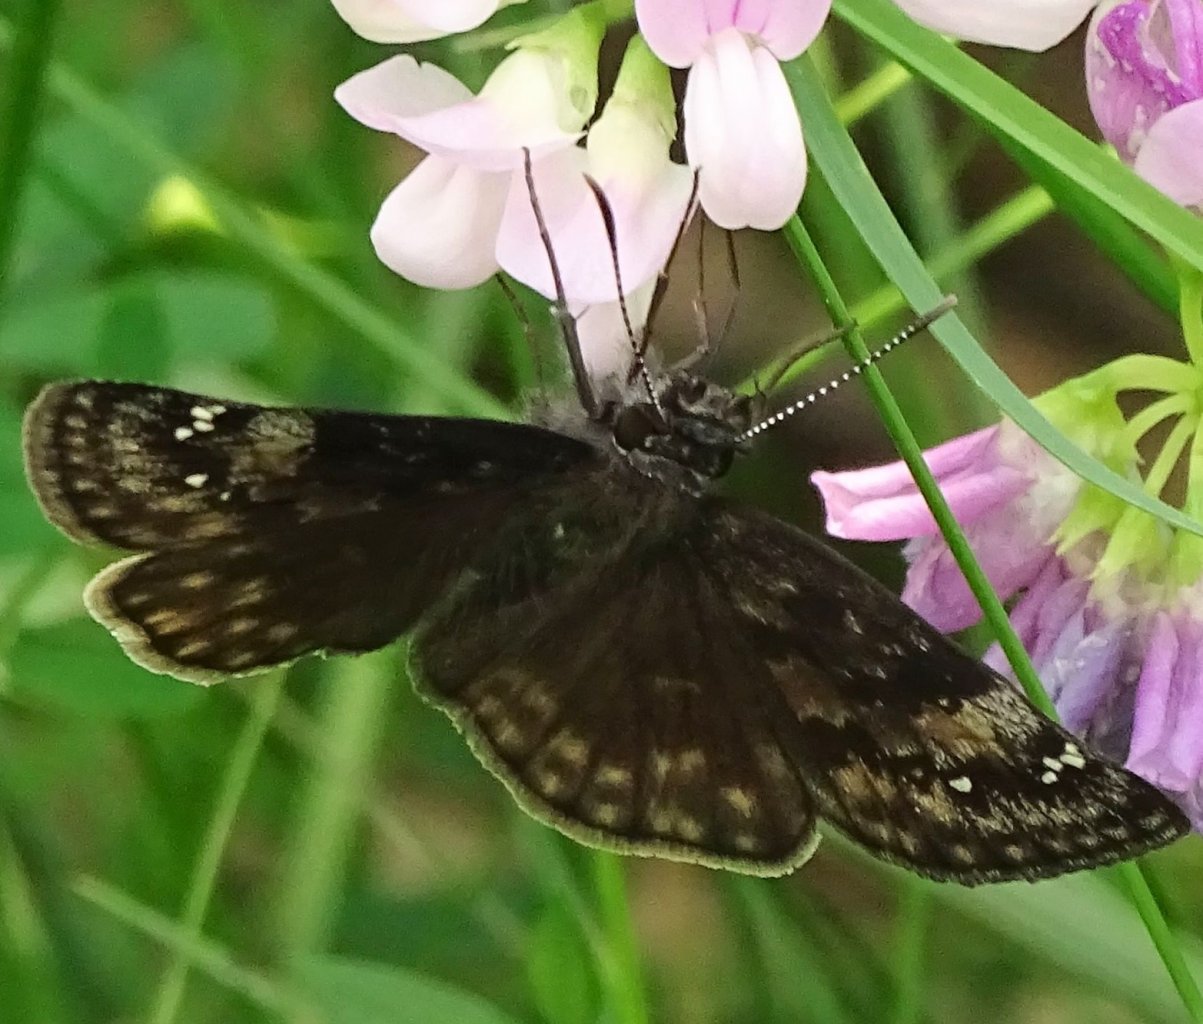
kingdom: Animalia
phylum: Arthropoda
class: Insecta
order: Lepidoptera
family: Hesperiidae
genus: Gesta
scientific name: Gesta
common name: Wild Indigo Duskywing
